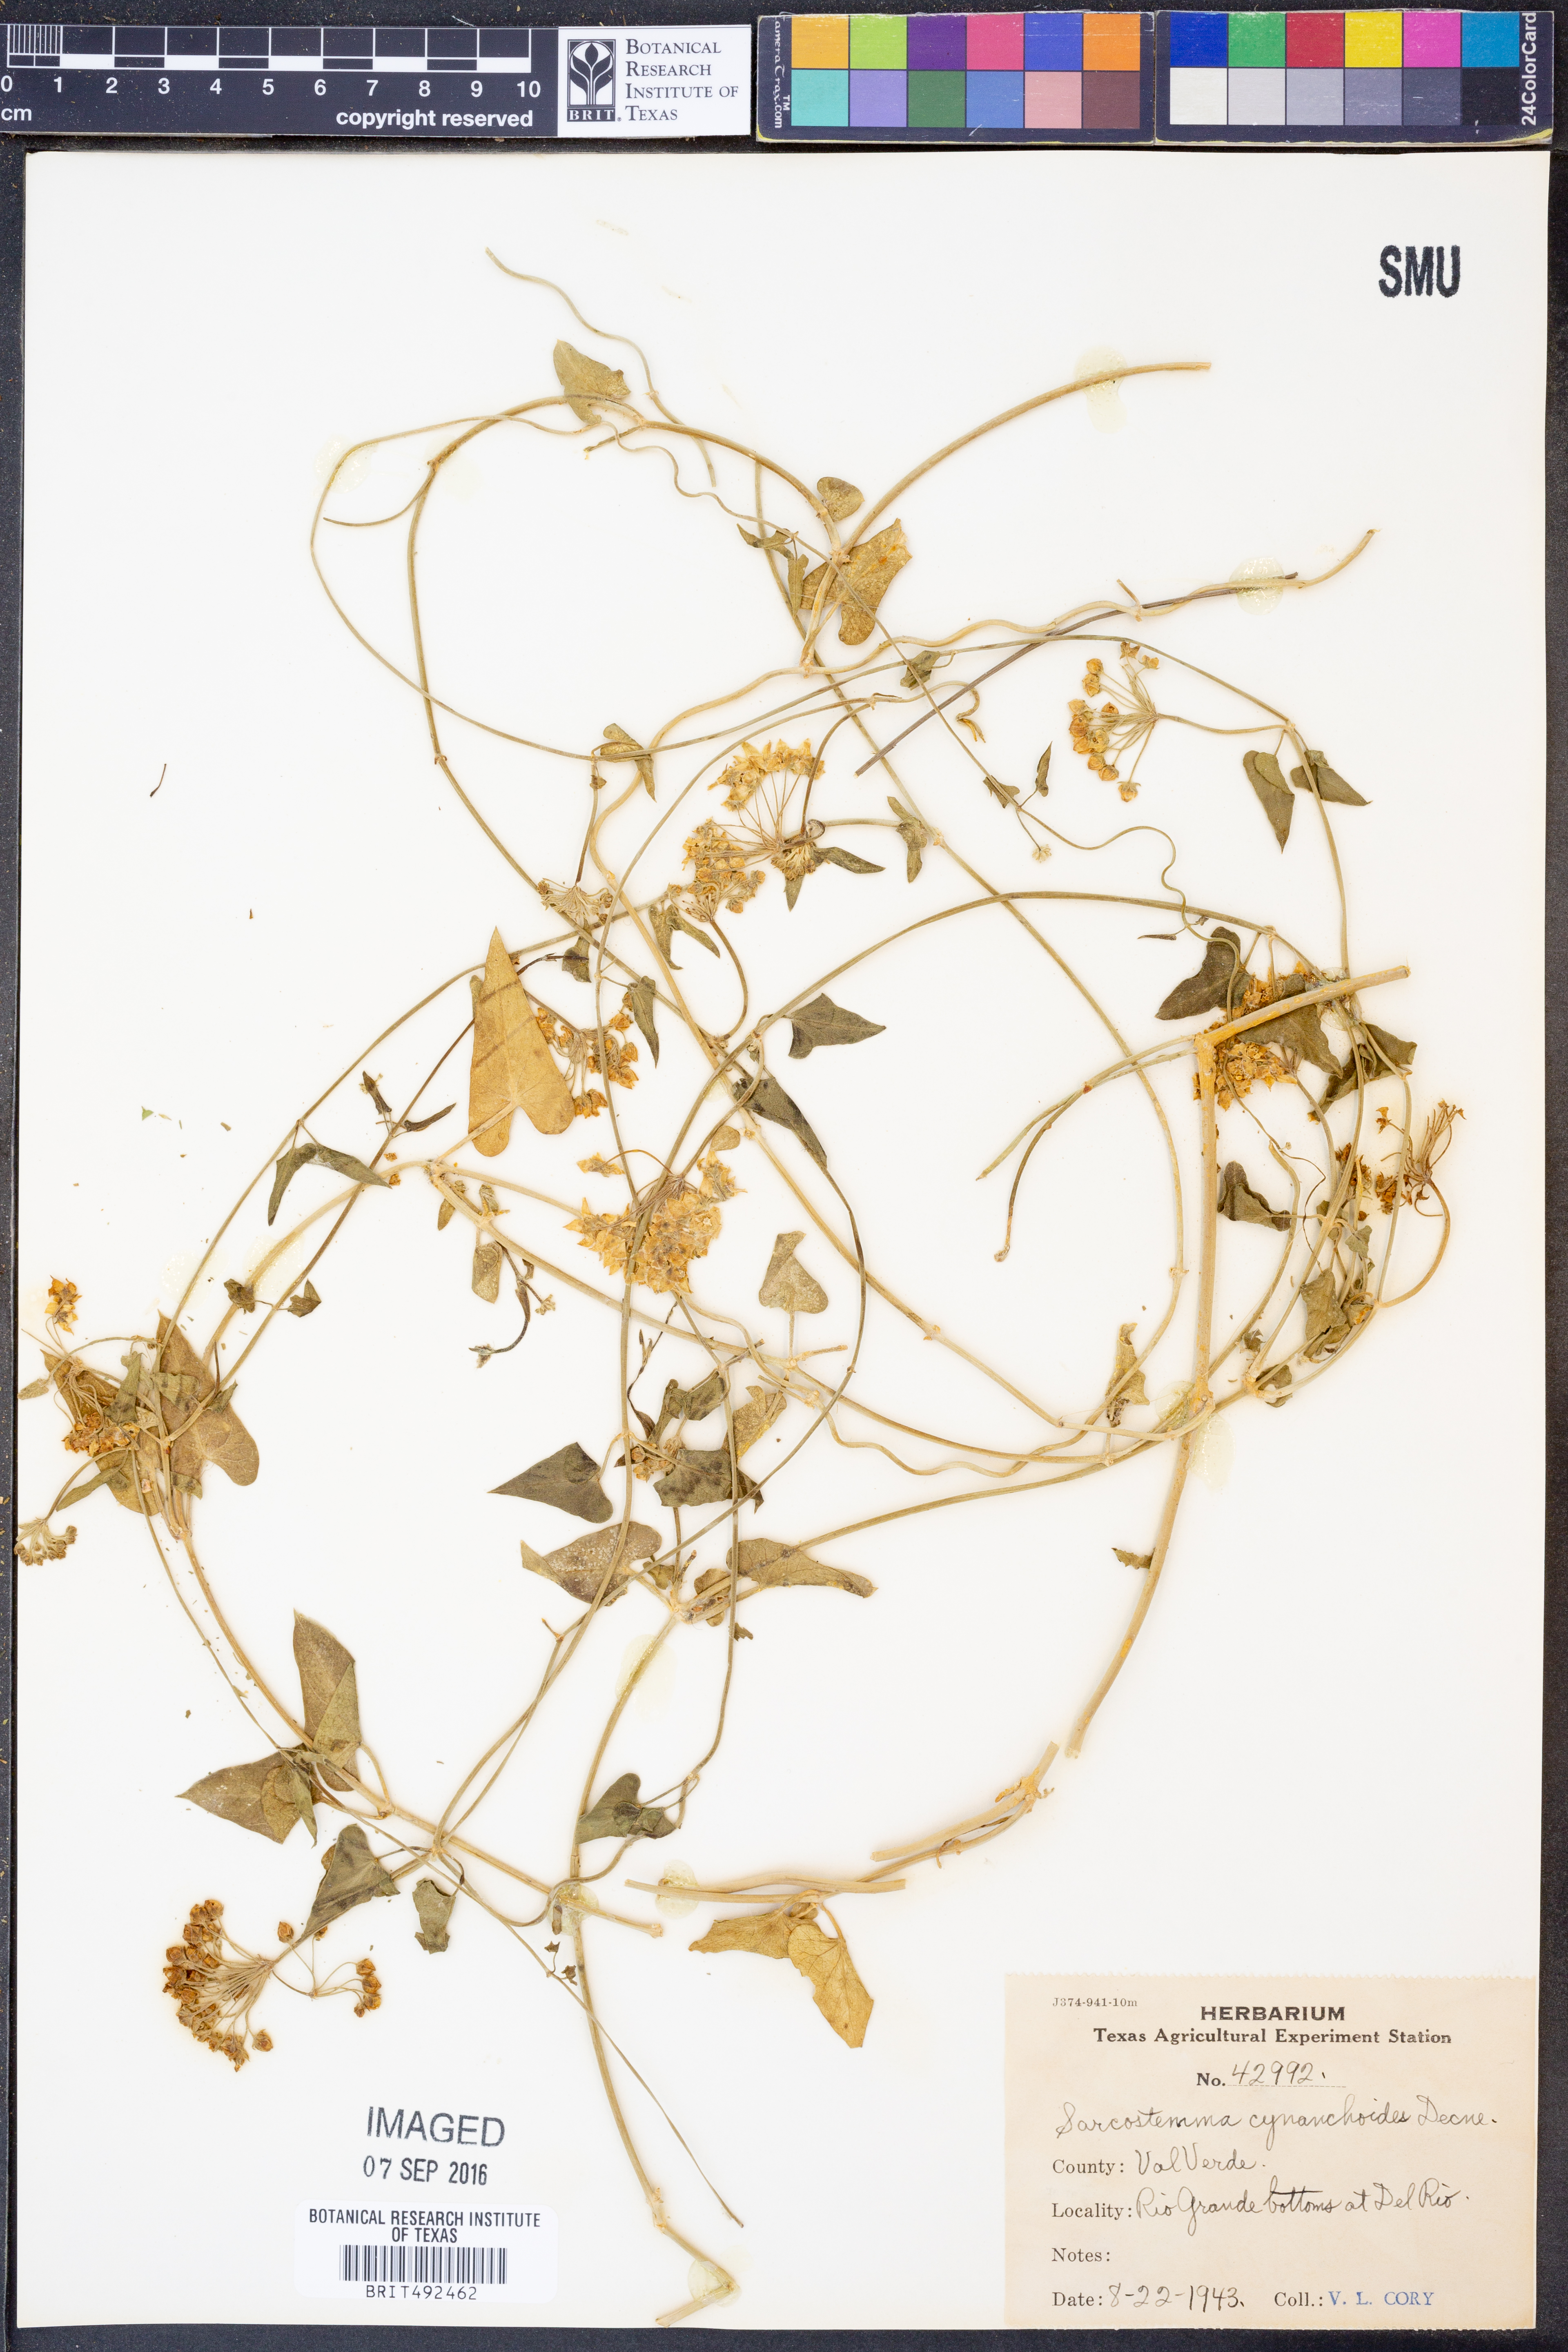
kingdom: Plantae
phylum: Tracheophyta
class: Magnoliopsida
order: Gentianales
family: Apocynaceae
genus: Funastrum
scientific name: Funastrum cynanchoides
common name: Climbing-milkweed
